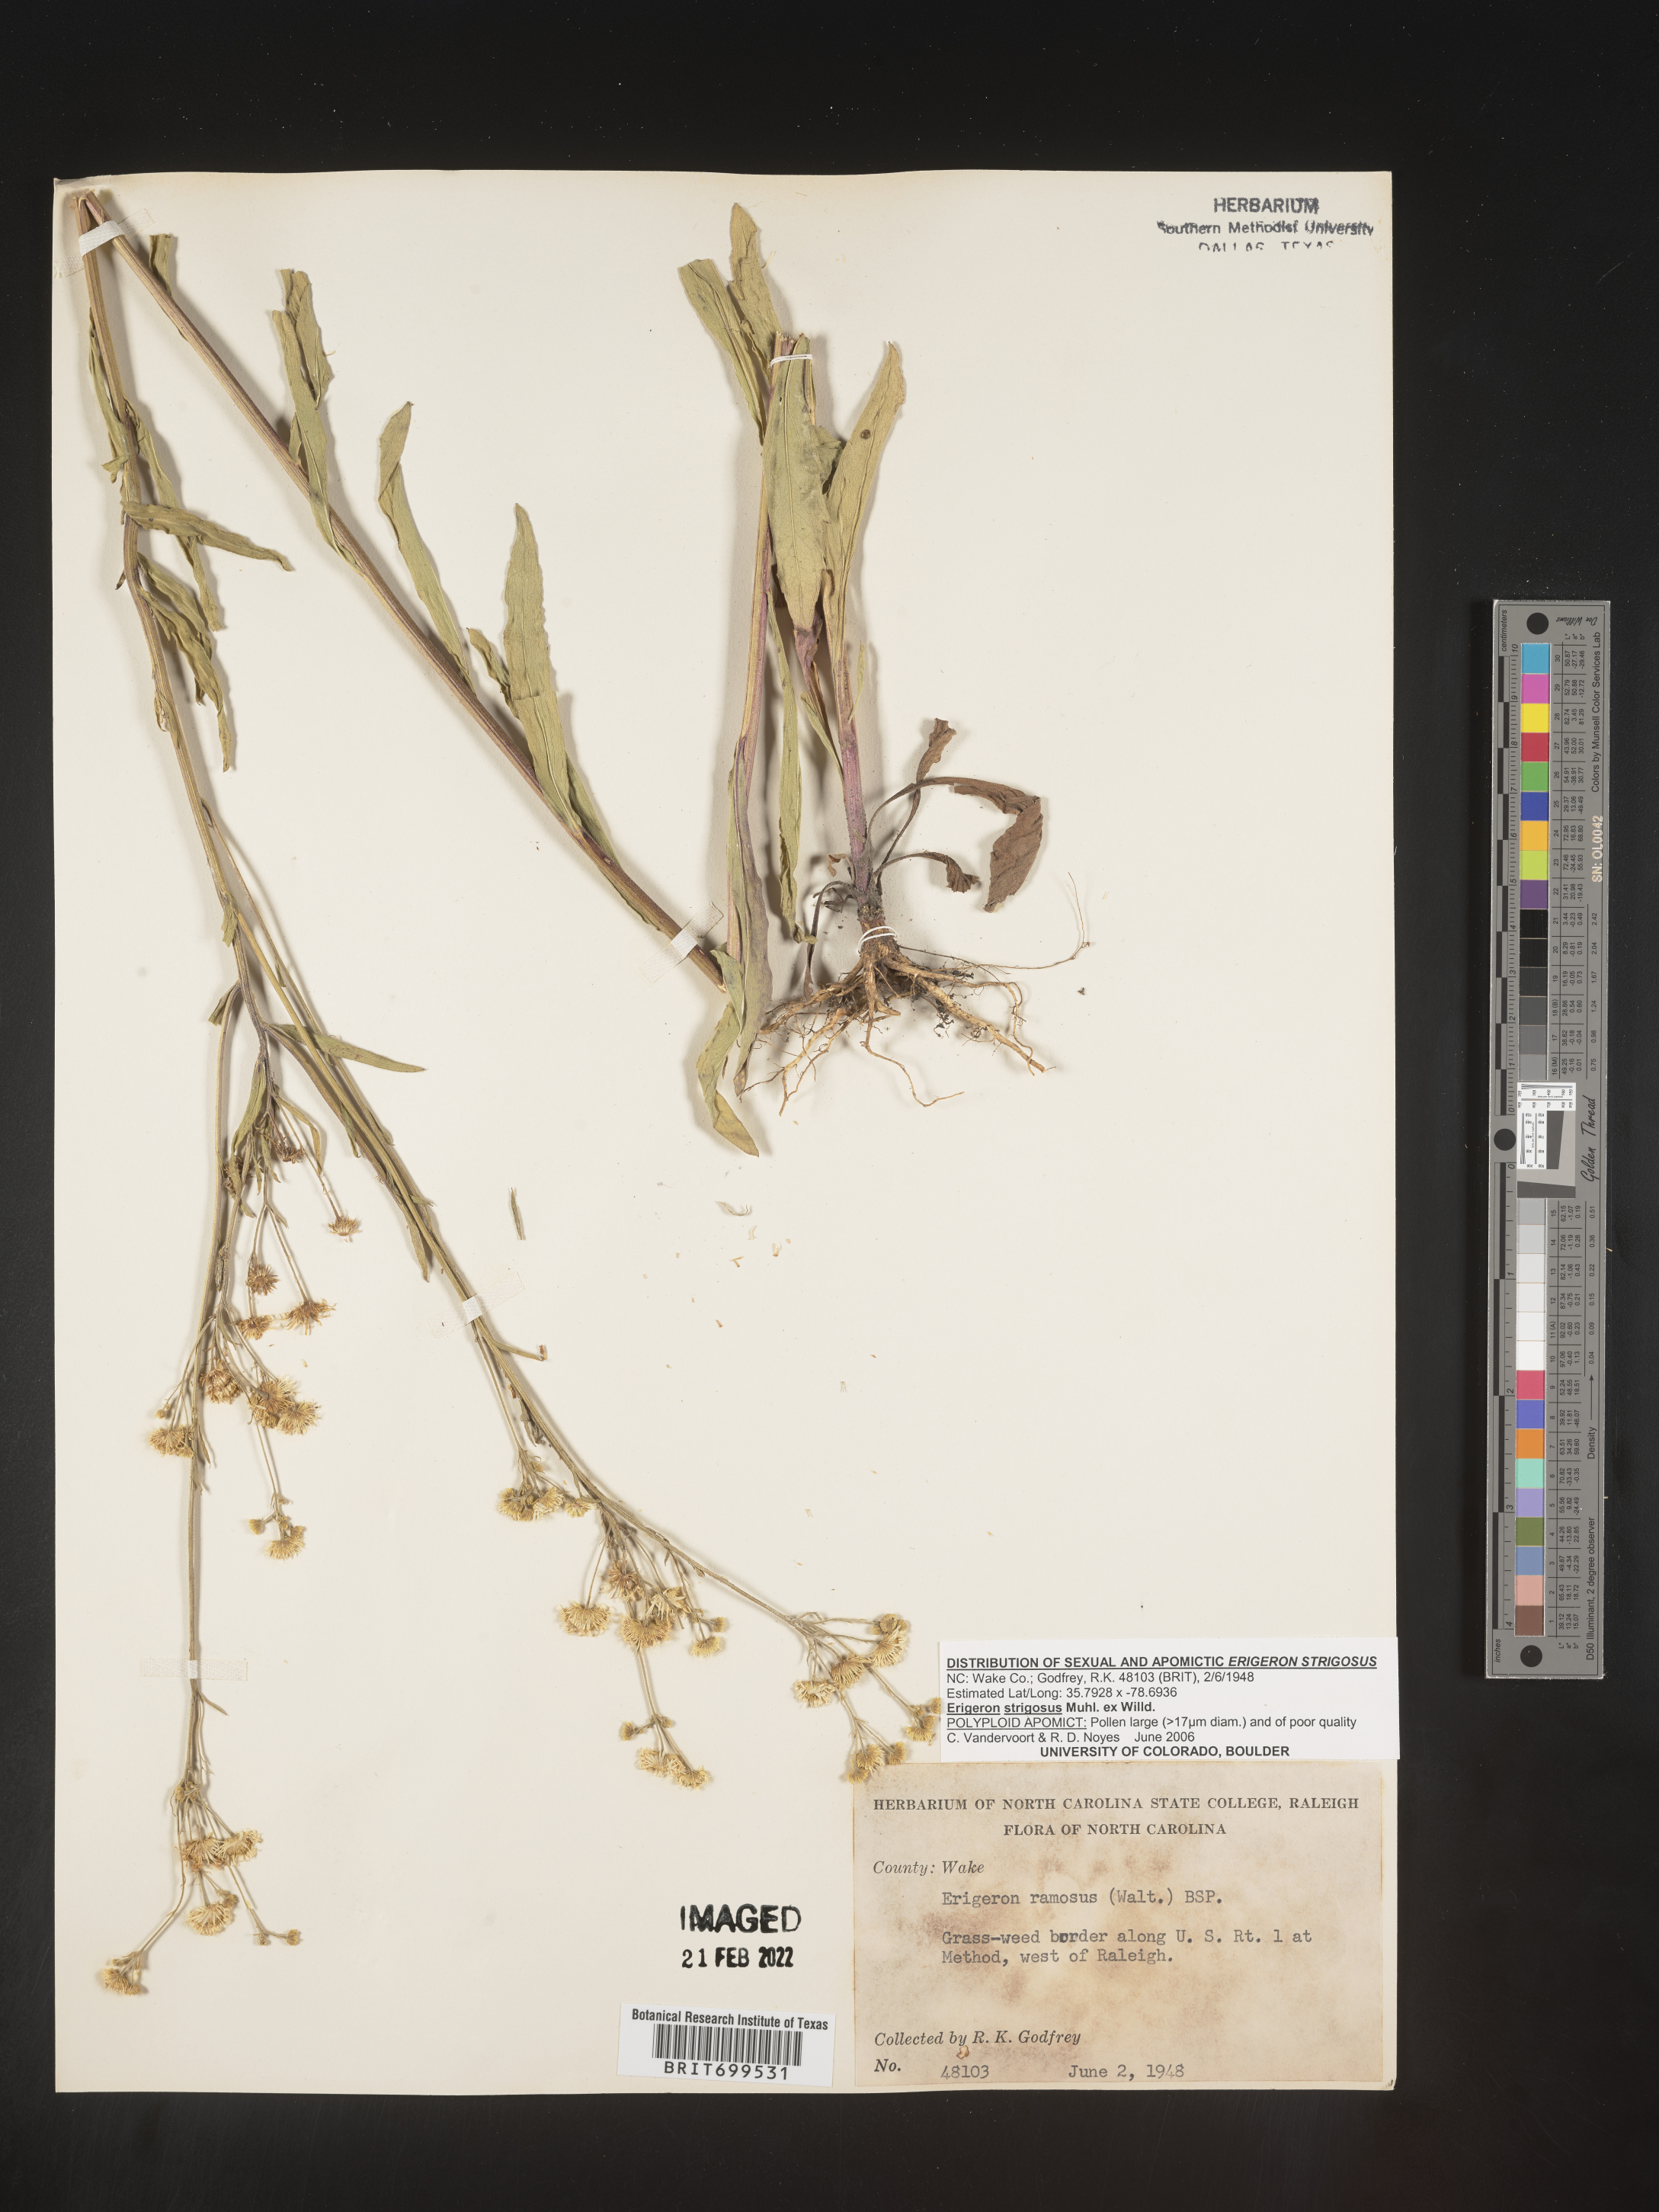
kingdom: Plantae
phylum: Tracheophyta
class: Magnoliopsida
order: Asterales
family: Asteraceae
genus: Erigeron
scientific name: Erigeron strigosus
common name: Common eastern fleabane
